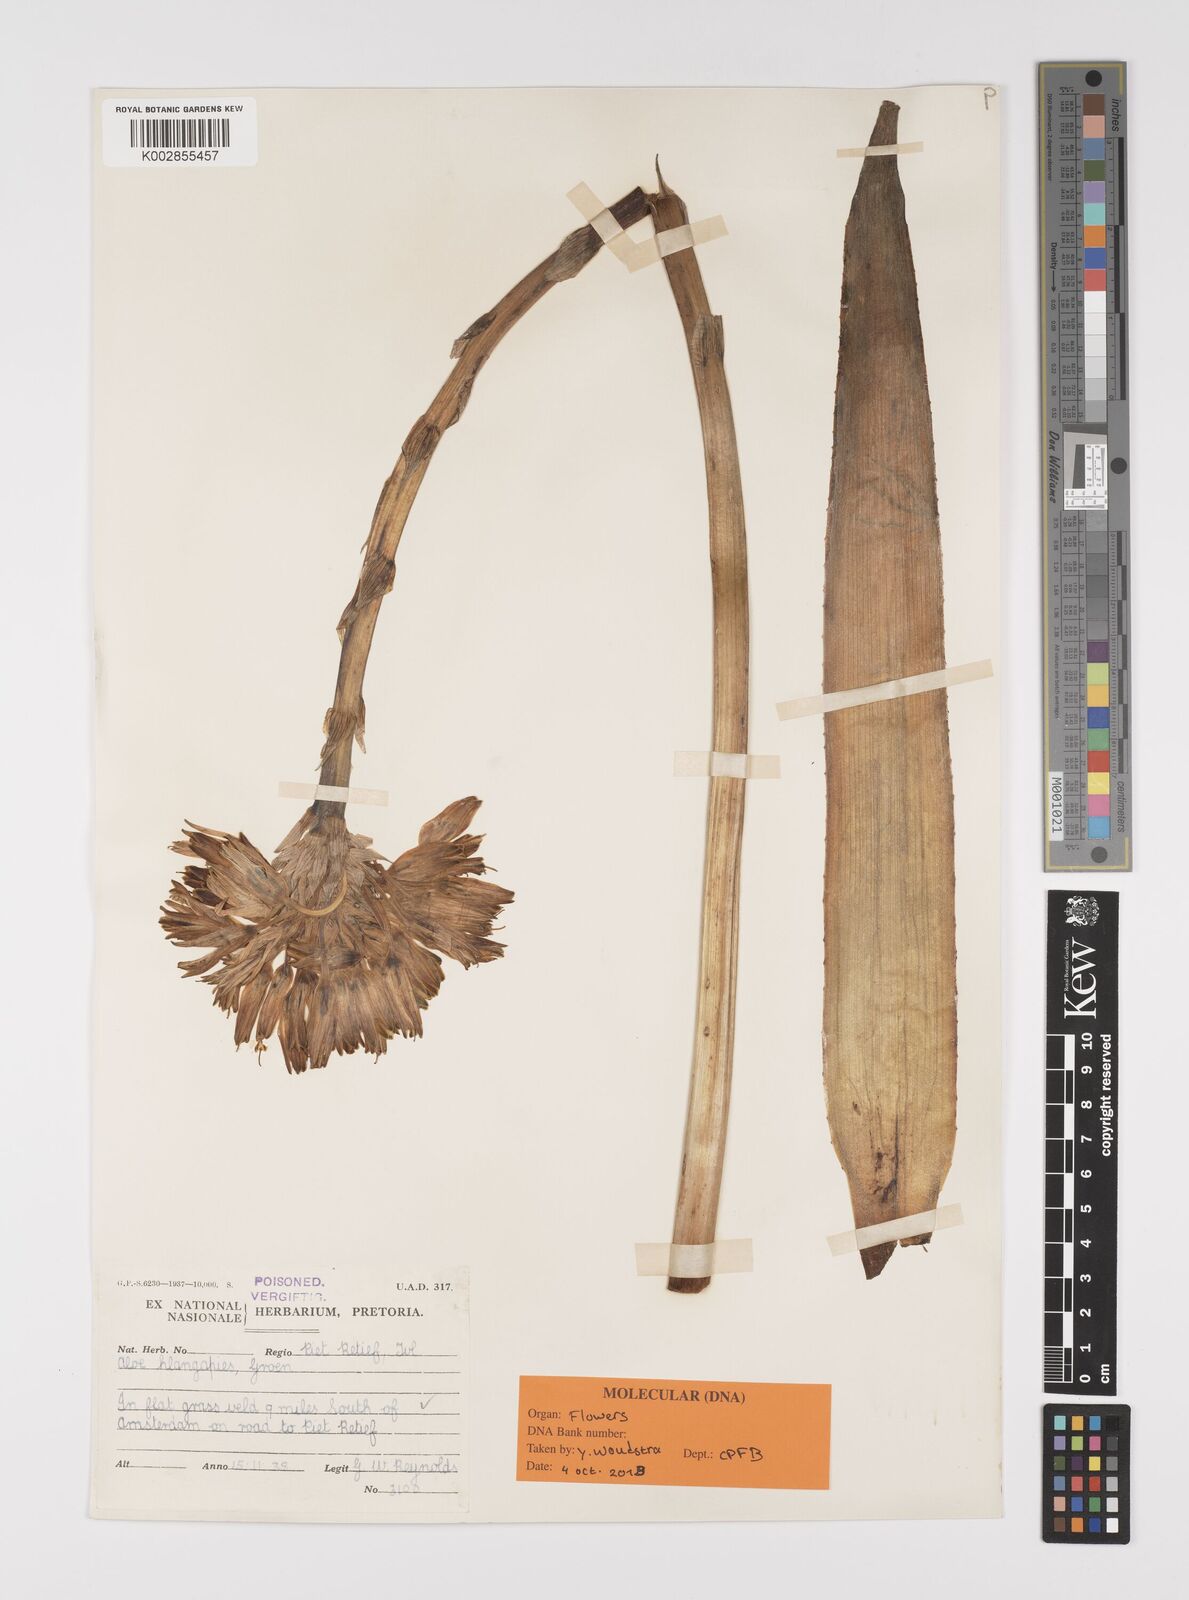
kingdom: Plantae
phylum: Tracheophyta
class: Liliopsida
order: Asparagales
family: Asphodelaceae
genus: Aloe
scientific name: Aloe hlangapies
